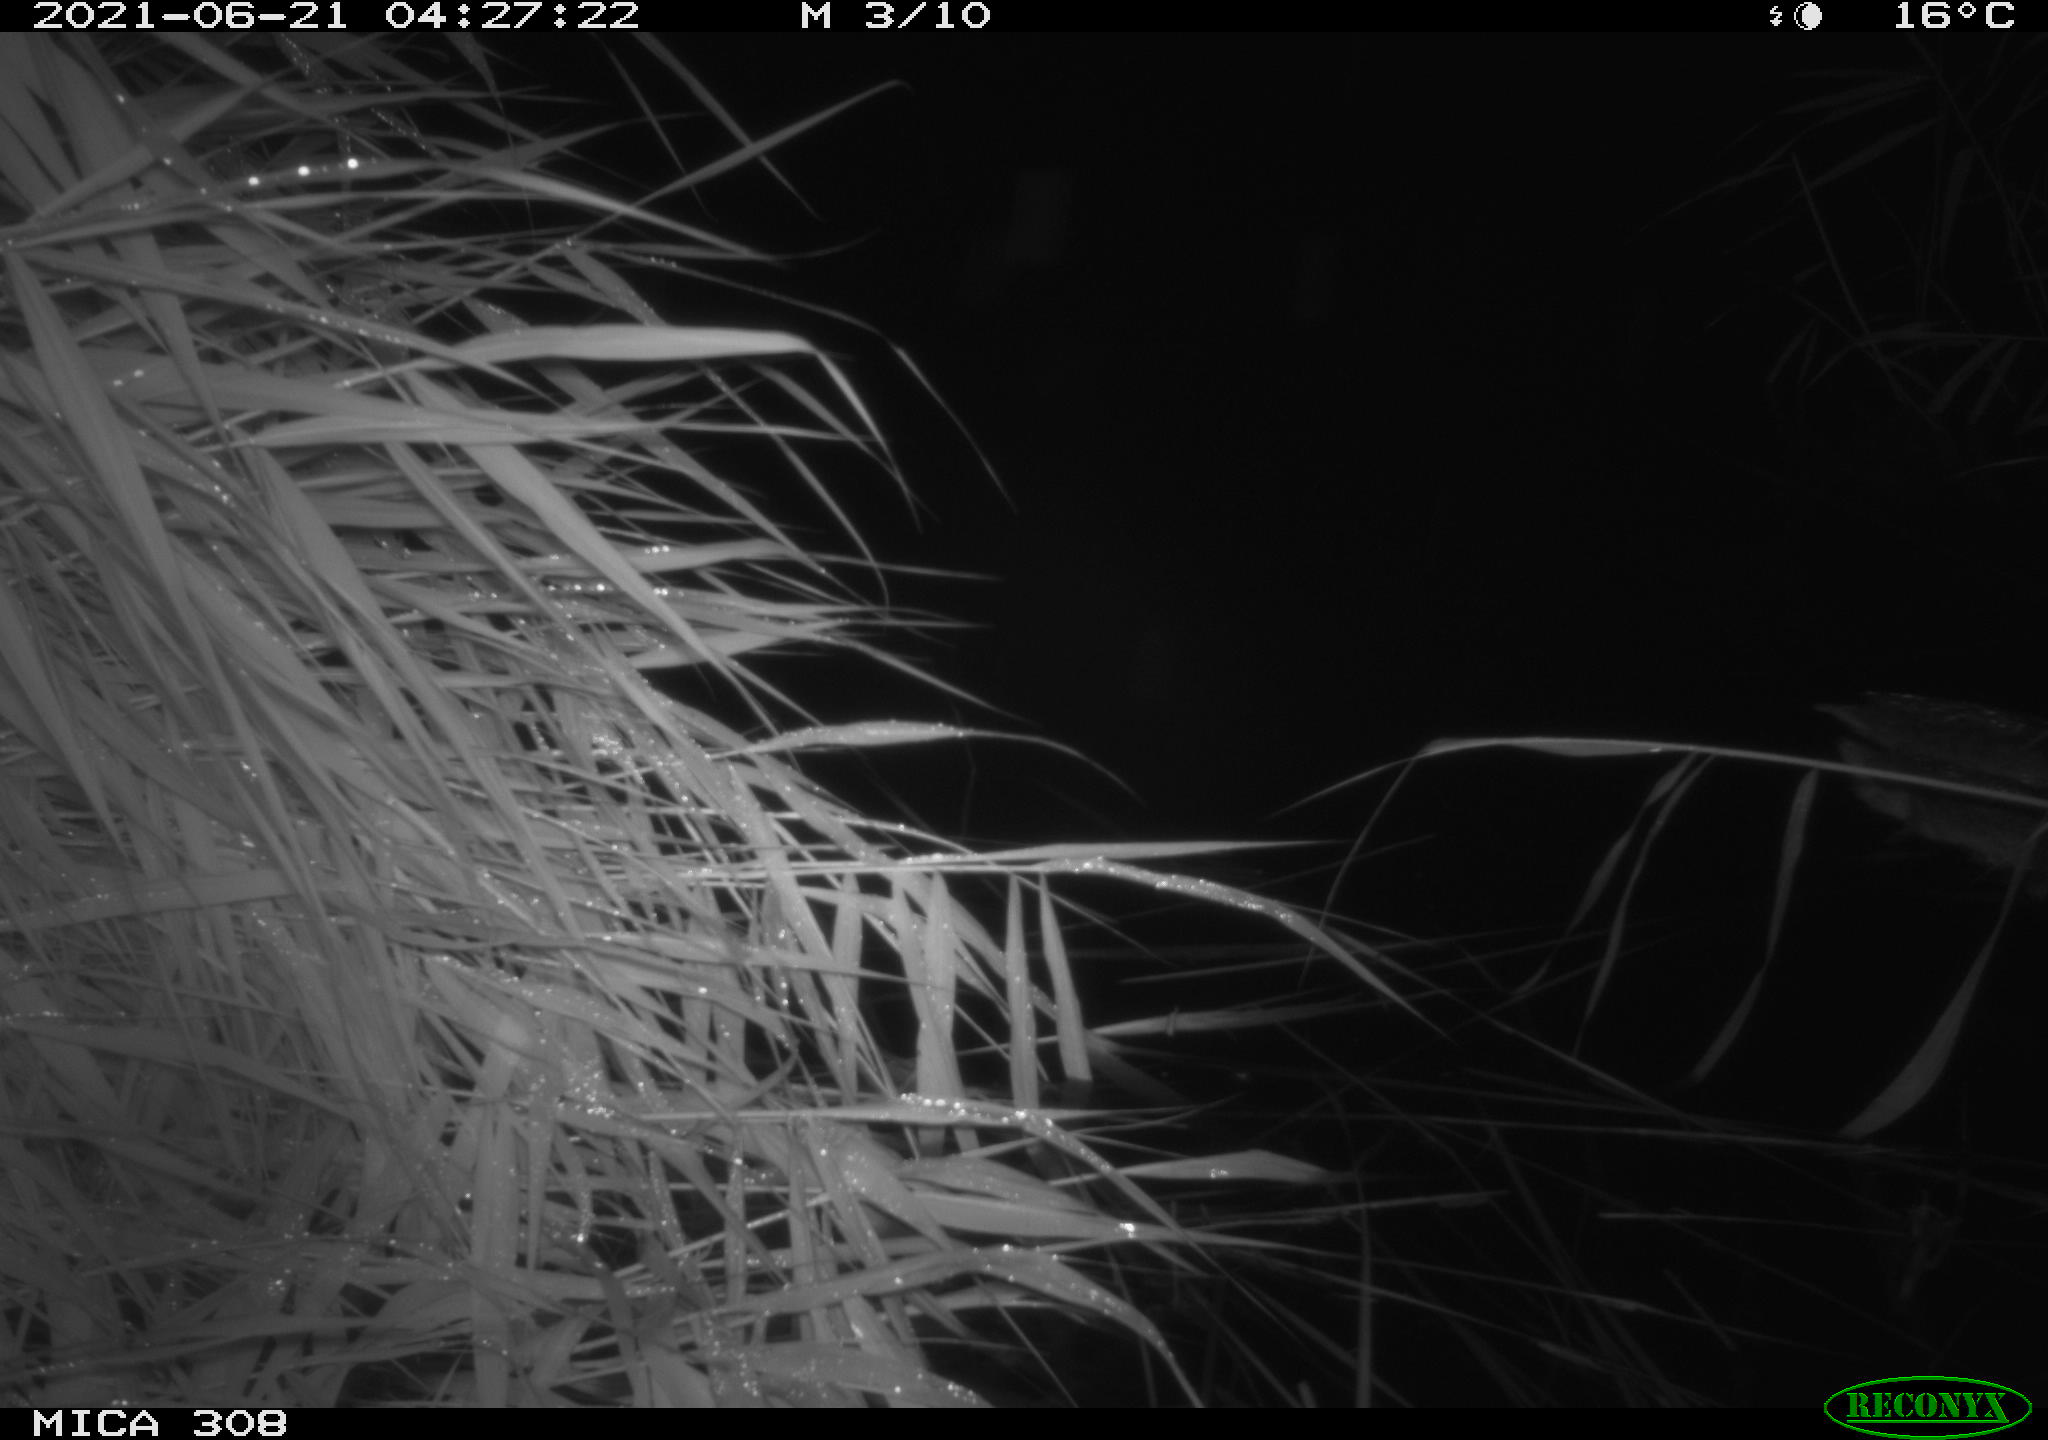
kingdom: Animalia
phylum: Chordata
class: Aves
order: Anseriformes
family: Anatidae
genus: Anas
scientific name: Anas platyrhynchos
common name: Mallard
